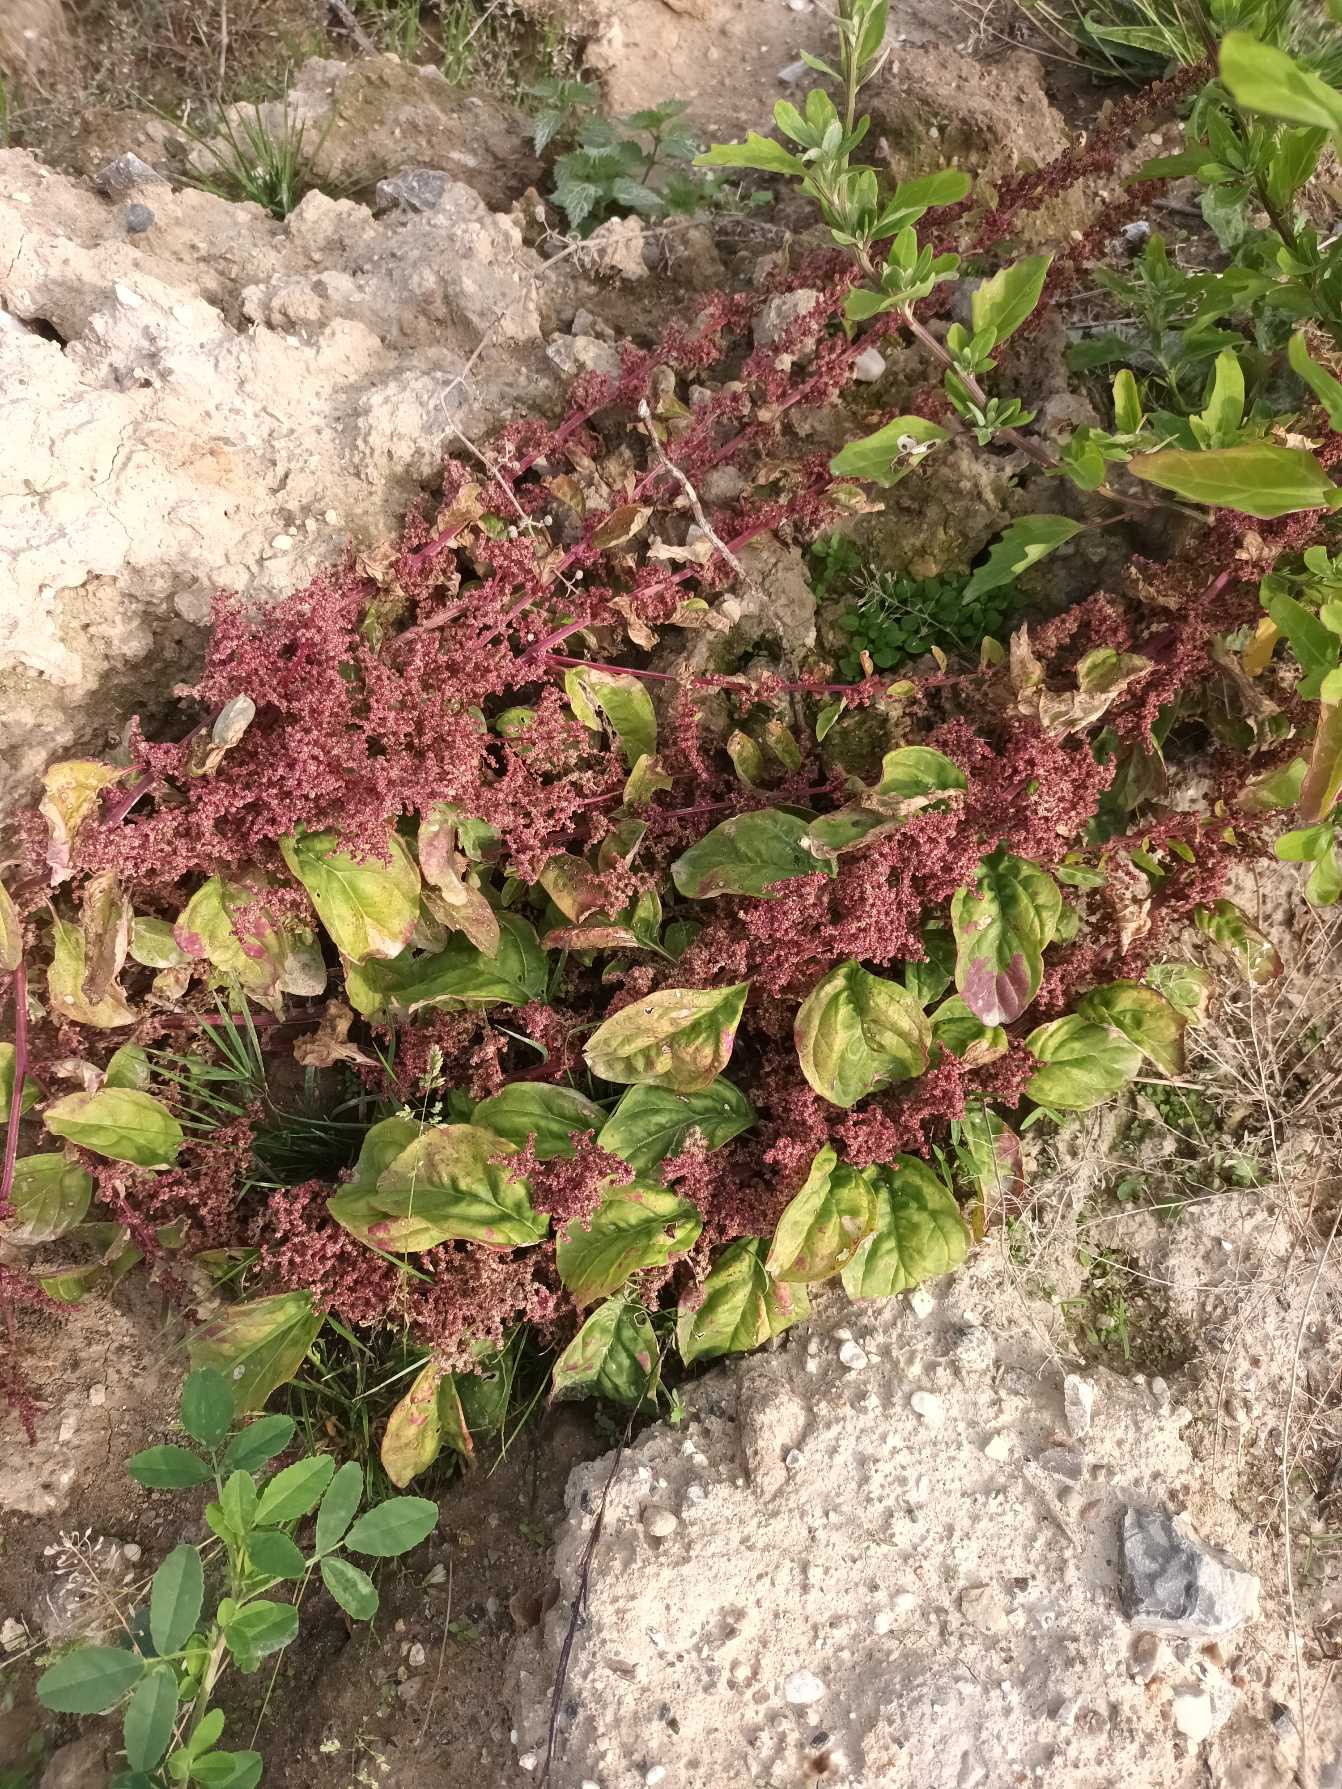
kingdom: Plantae
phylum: Tracheophyta
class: Magnoliopsida
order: Caryophyllales
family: Amaranthaceae
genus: Lipandra
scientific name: Lipandra polysperma
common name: Mangefrøet gåsefod
